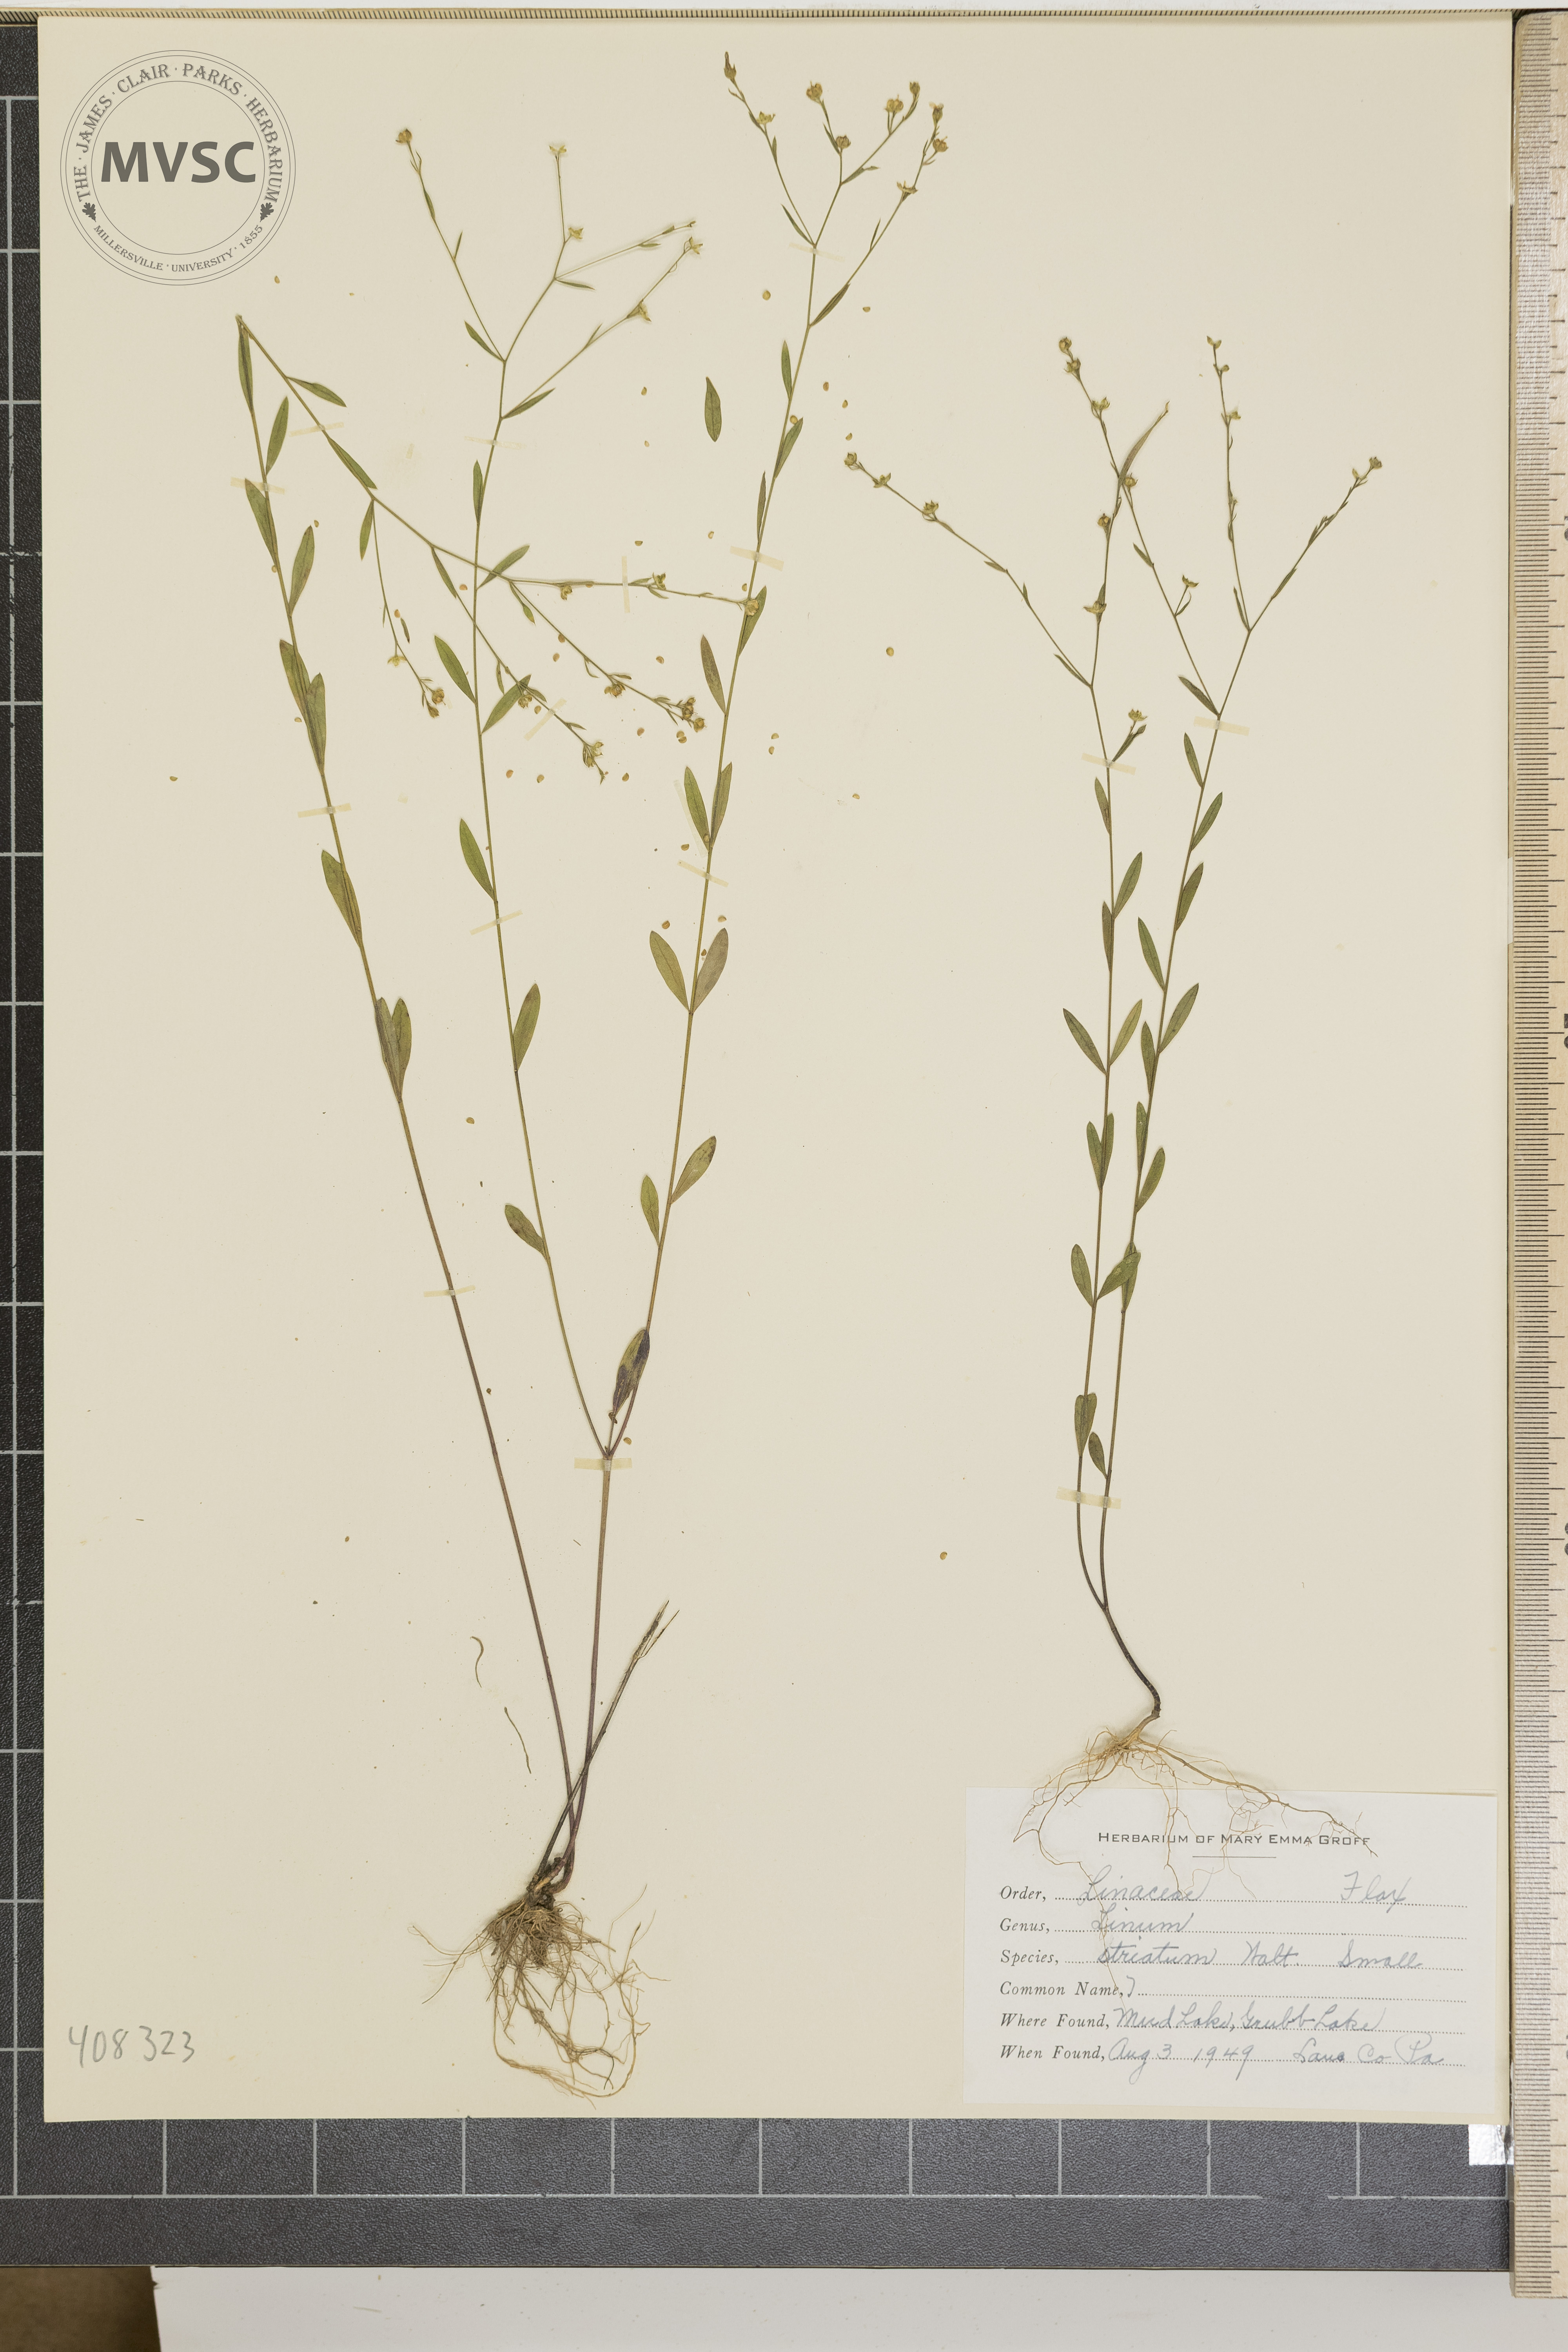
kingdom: Plantae
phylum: Tracheophyta
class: Magnoliopsida
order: Malpighiales
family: Linaceae
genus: Linum
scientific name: Linum striatum
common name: Ridged yellow flax
